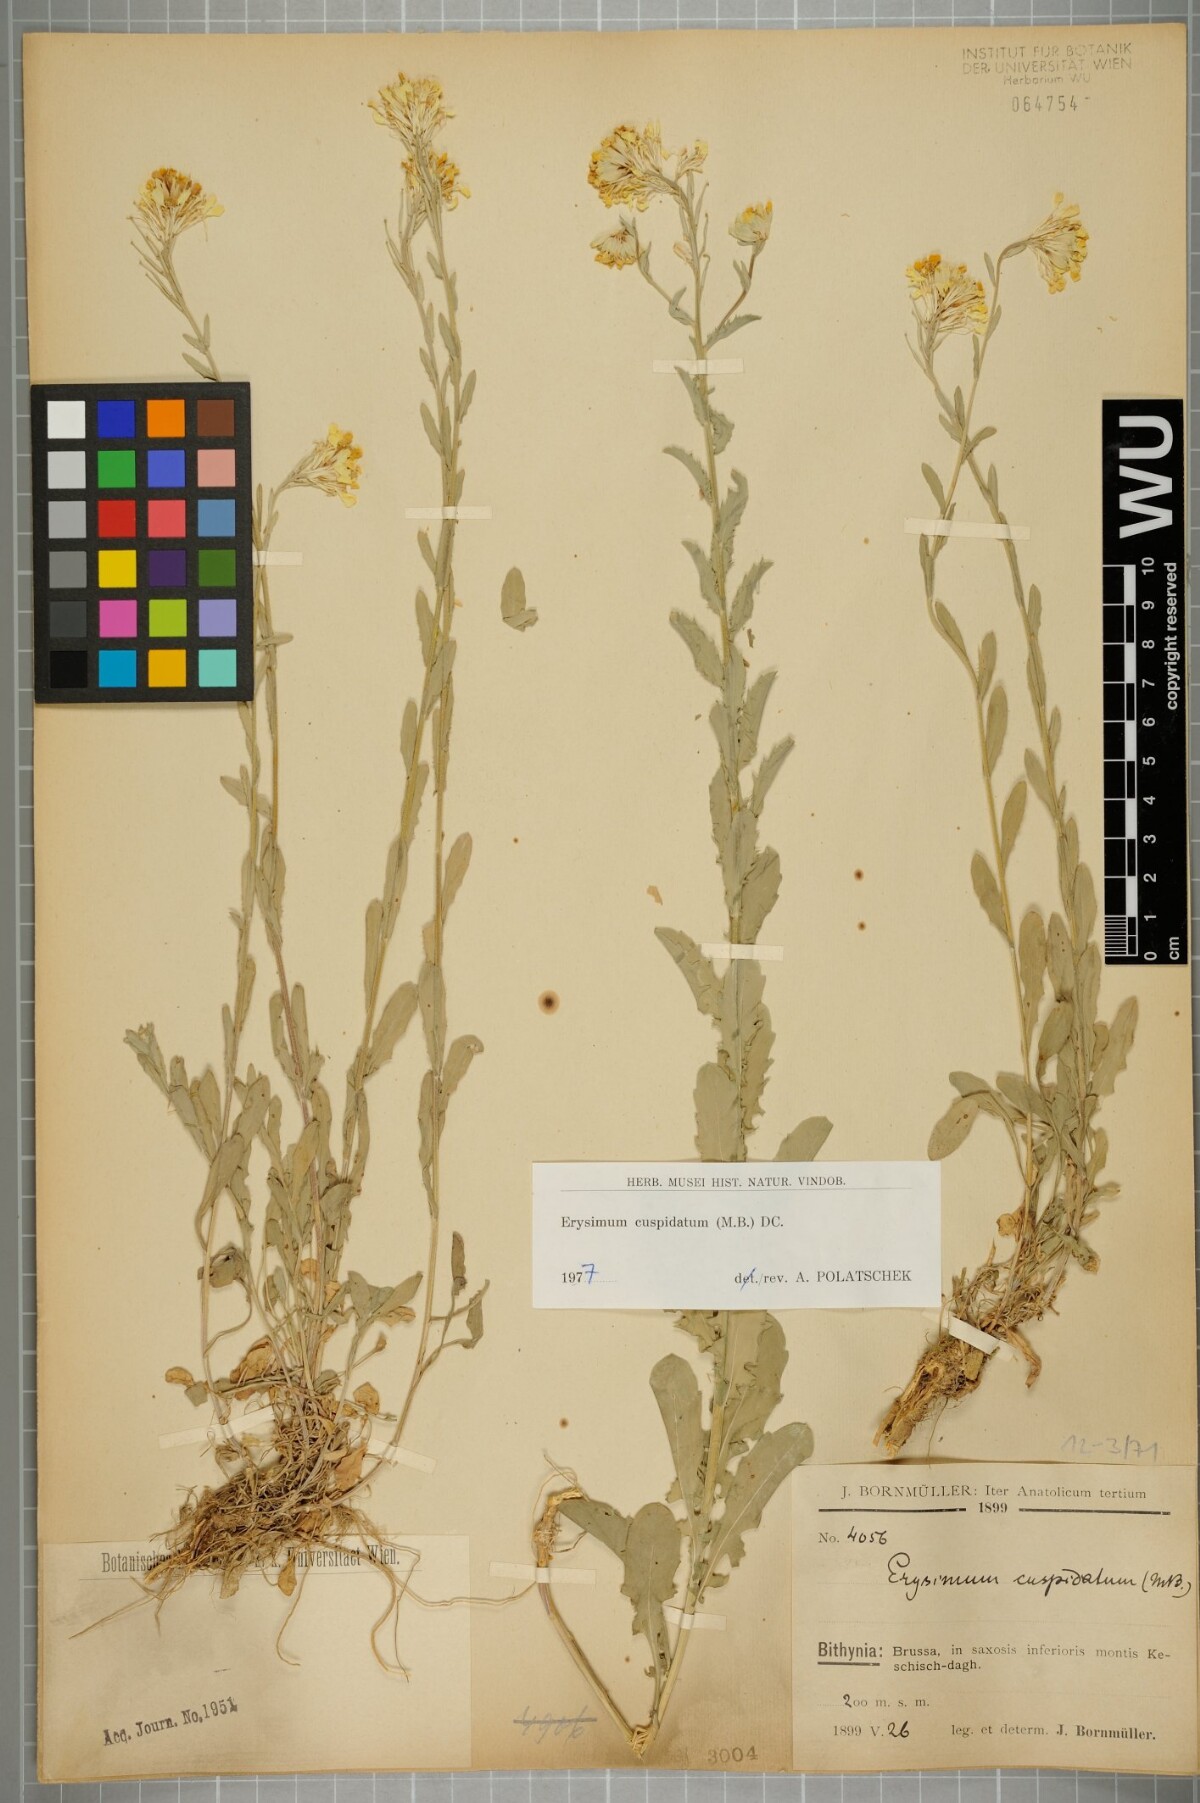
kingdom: Plantae
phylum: Tracheophyta
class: Magnoliopsida
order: Brassicales
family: Brassicaceae
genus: Erysimum
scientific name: Erysimum cuspidatum
